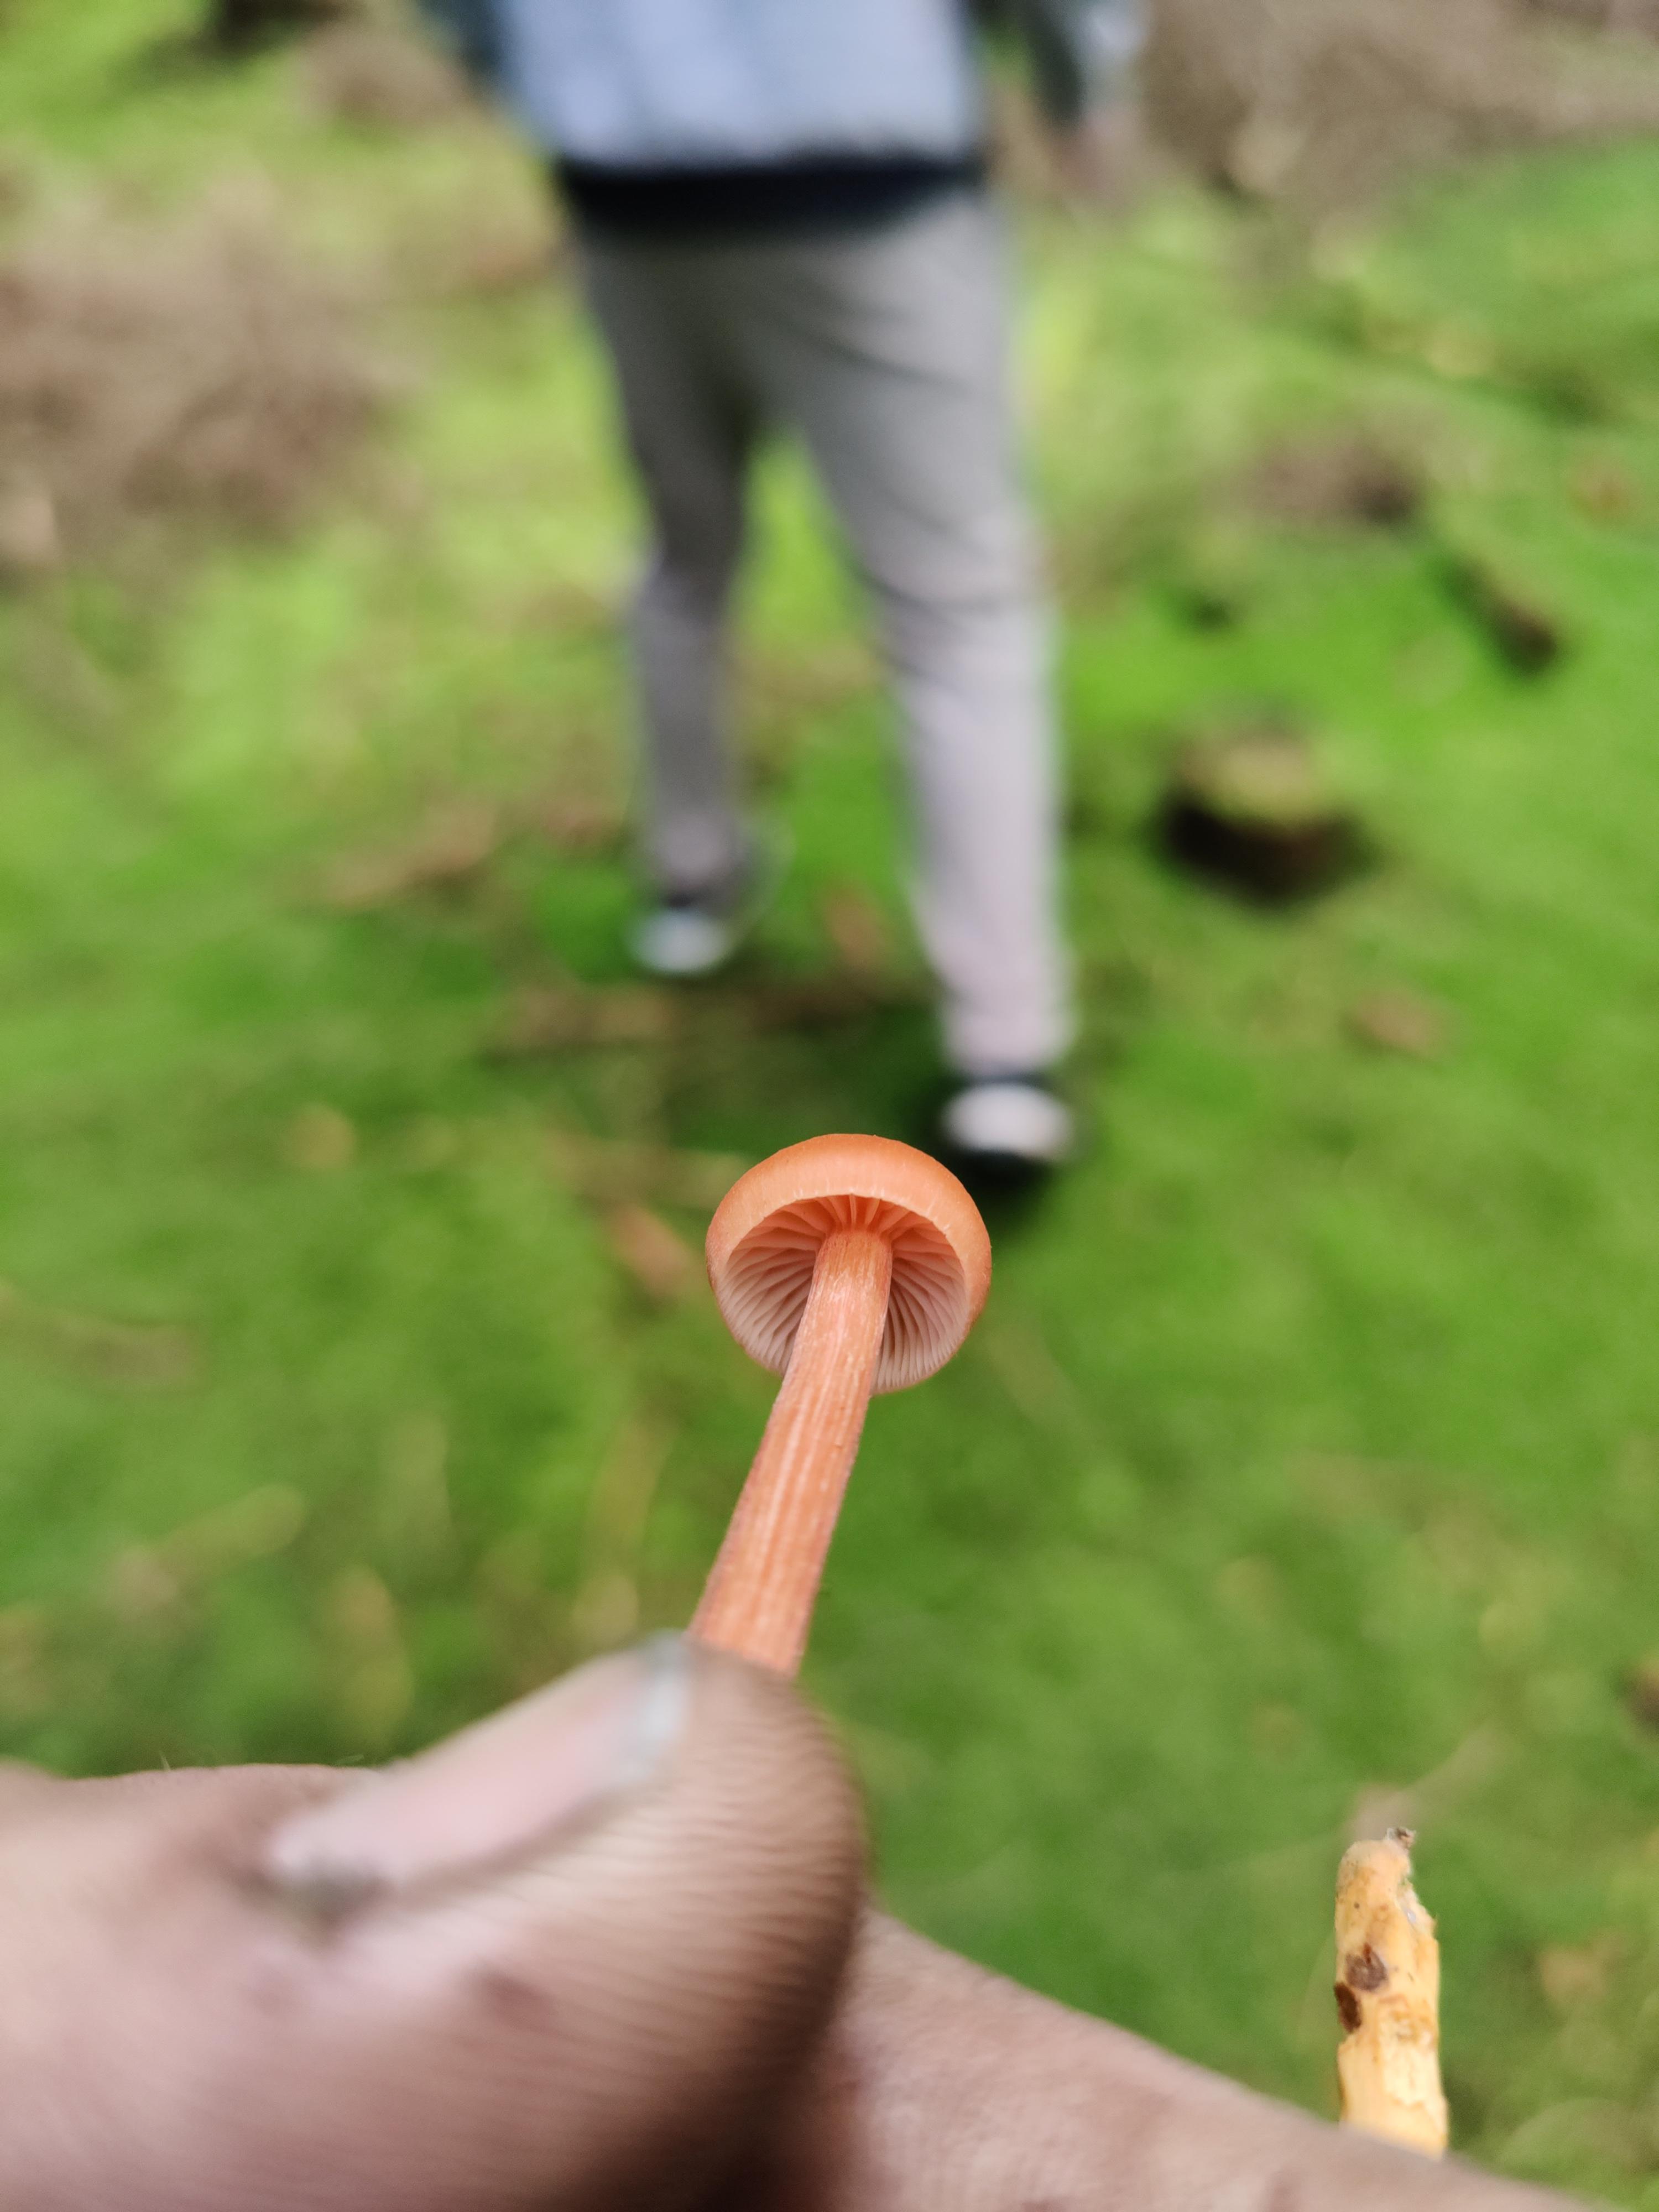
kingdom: Fungi
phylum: Basidiomycota
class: Agaricomycetes
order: Agaricales
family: Hydnangiaceae
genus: Laccaria
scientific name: Laccaria laccata
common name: rød ametysthat
